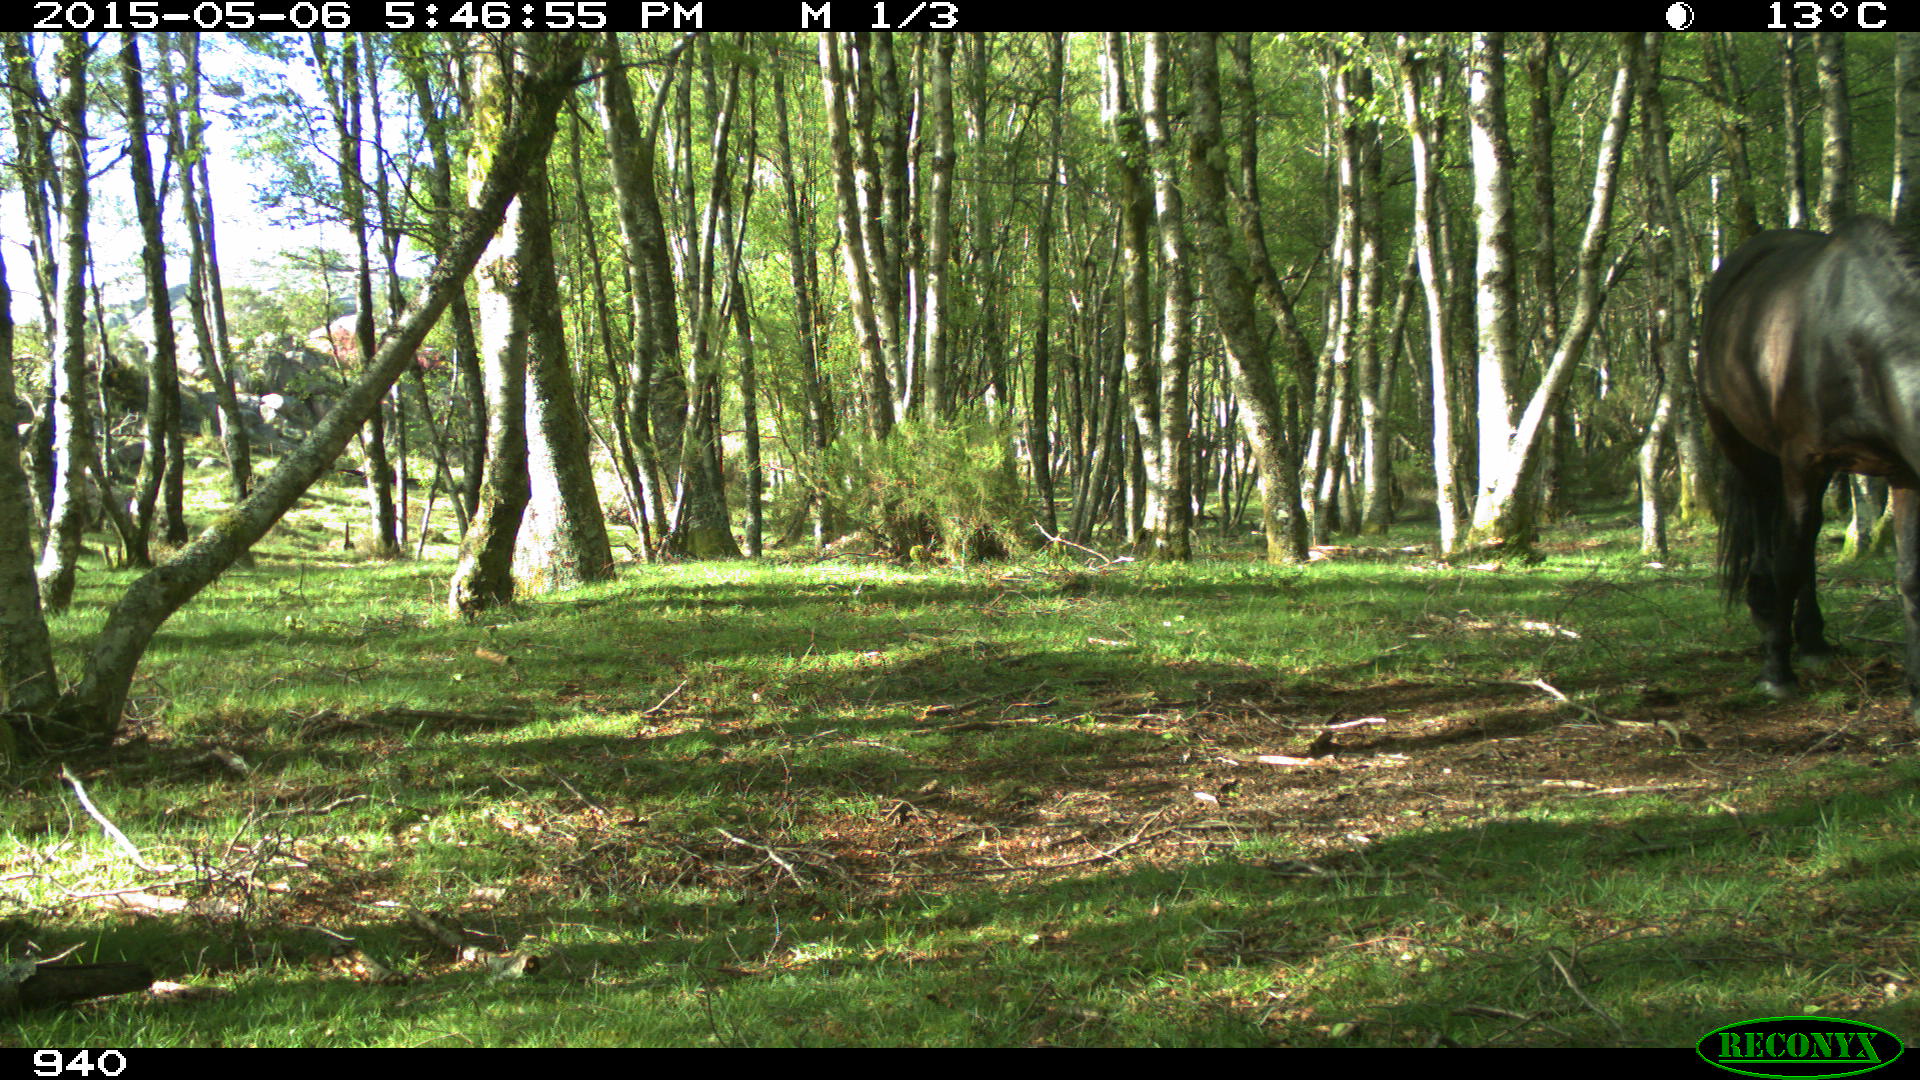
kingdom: Animalia
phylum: Chordata
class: Mammalia
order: Perissodactyla
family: Equidae
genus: Equus
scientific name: Equus caballus
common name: Horse
